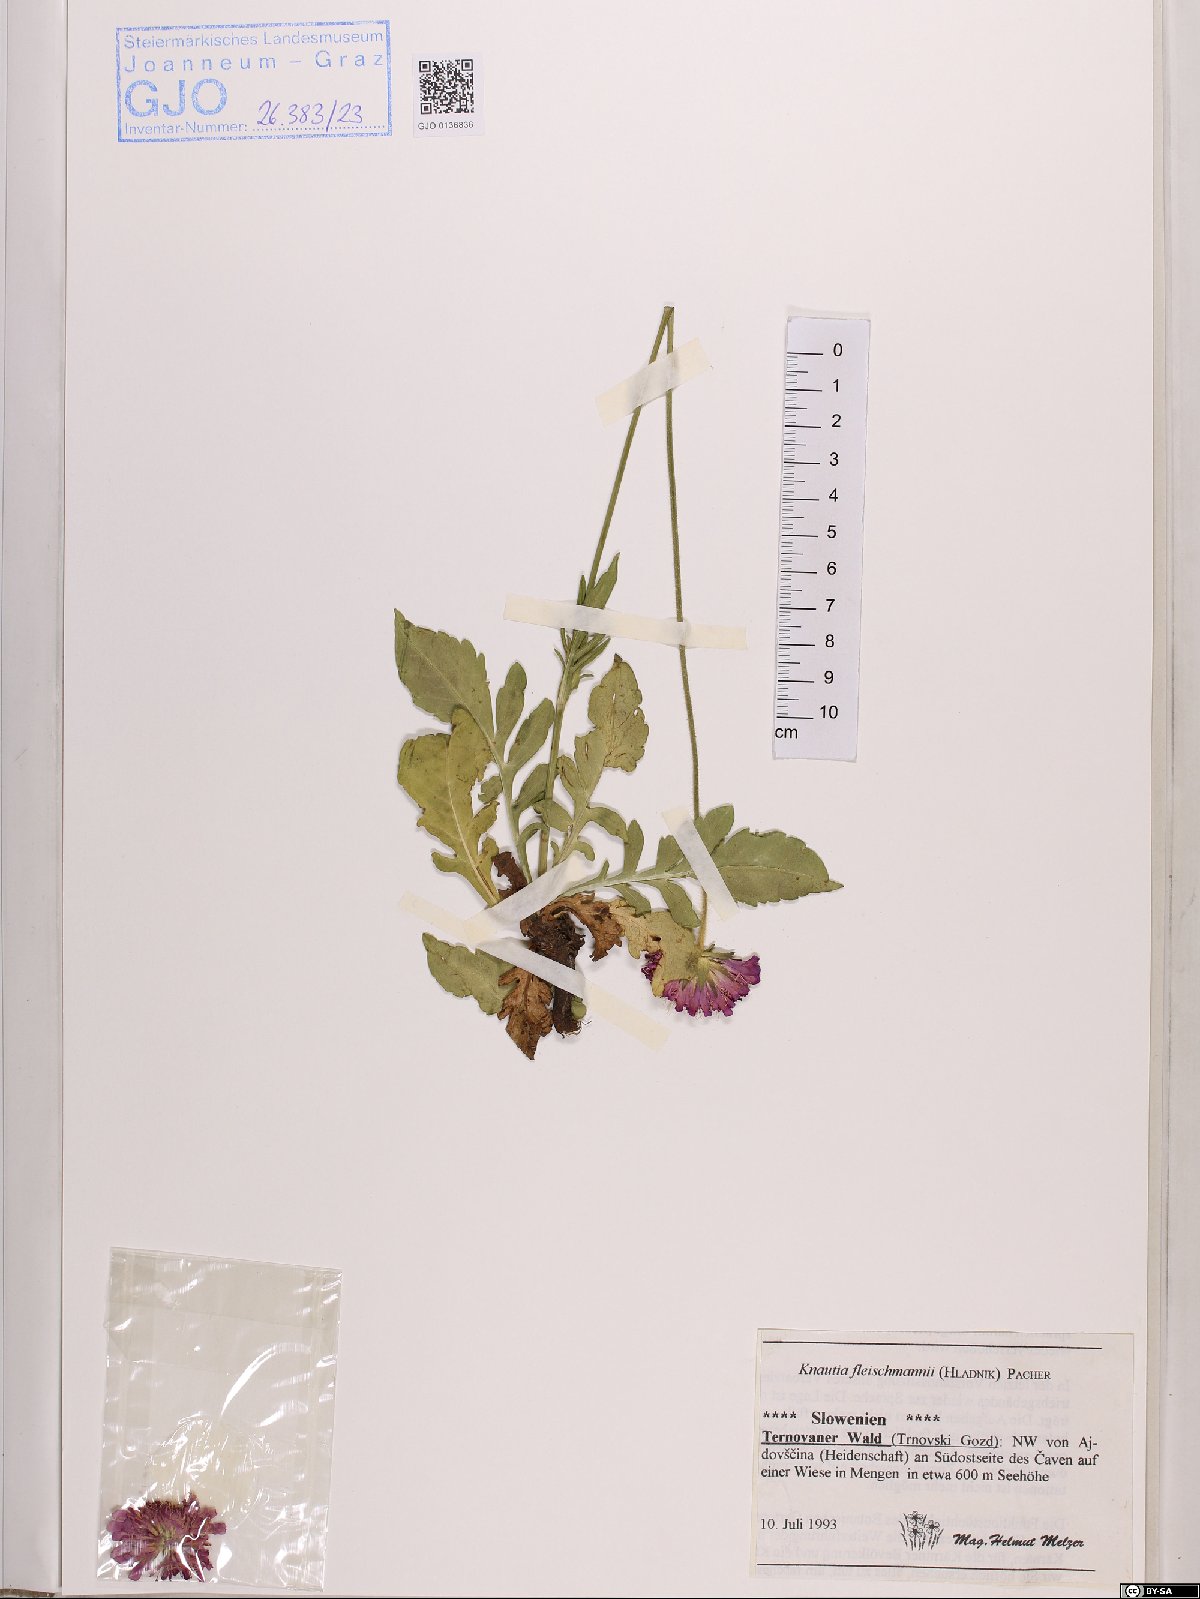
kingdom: Plantae
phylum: Tracheophyta
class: Magnoliopsida
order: Dipsacales
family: Caprifoliaceae
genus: Knautia
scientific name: Knautia fleischmannii
